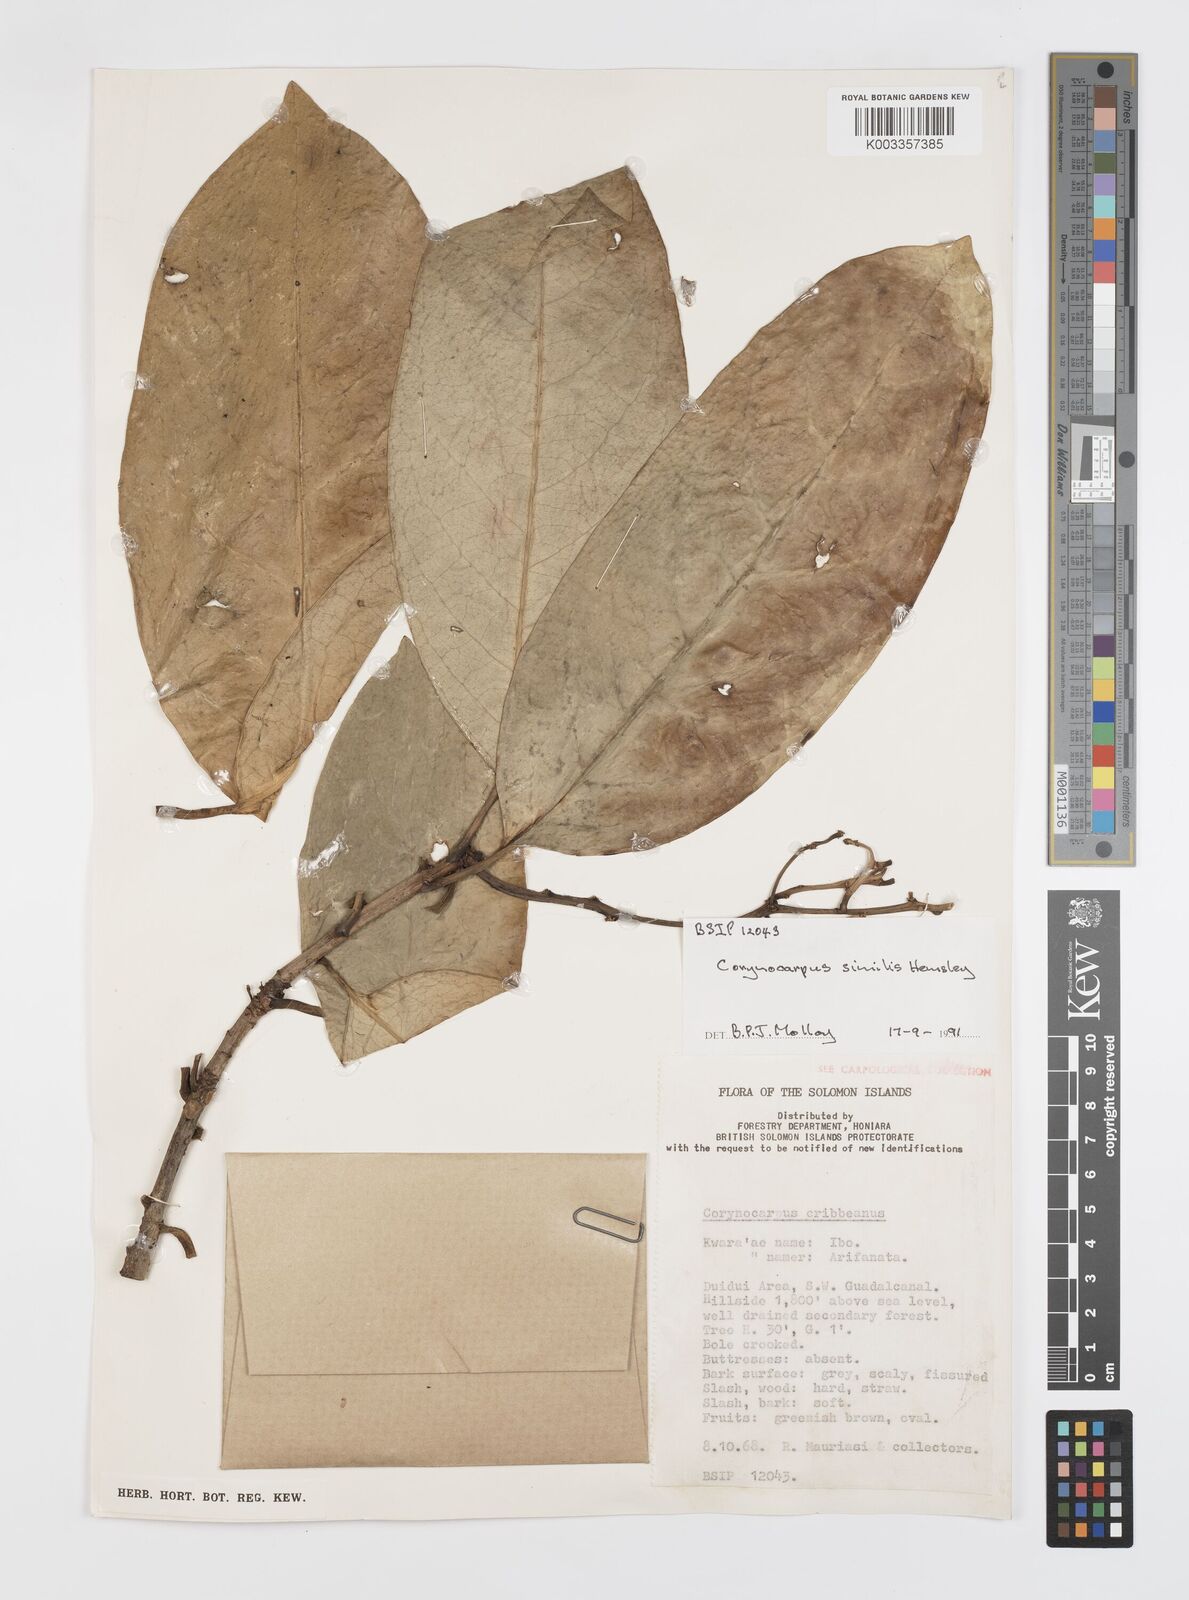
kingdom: Plantae
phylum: Tracheophyta
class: Magnoliopsida
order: Cucurbitales
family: Corynocarpaceae
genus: Corynocarpus
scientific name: Corynocarpus similis
